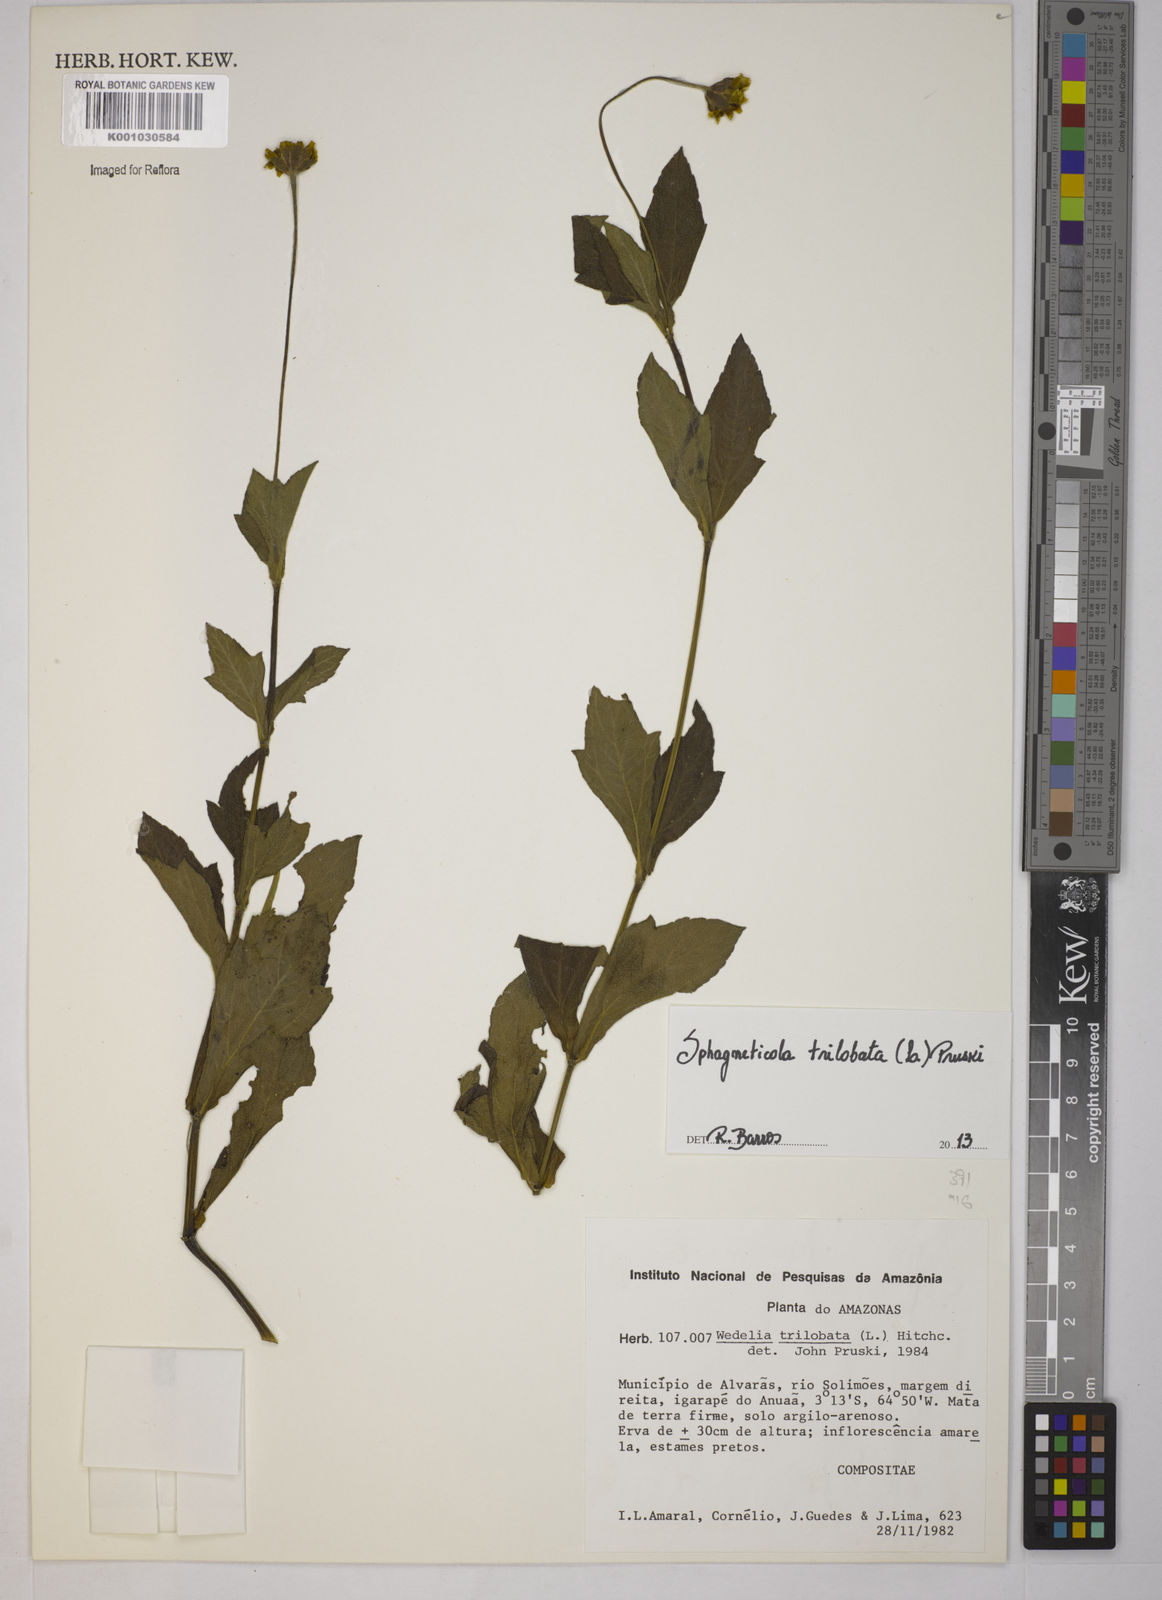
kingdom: Plantae
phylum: Tracheophyta
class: Magnoliopsida
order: Asterales
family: Asteraceae
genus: Sphagneticola
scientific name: Sphagneticola trilobata
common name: Bay biscayne creeping-oxeye
